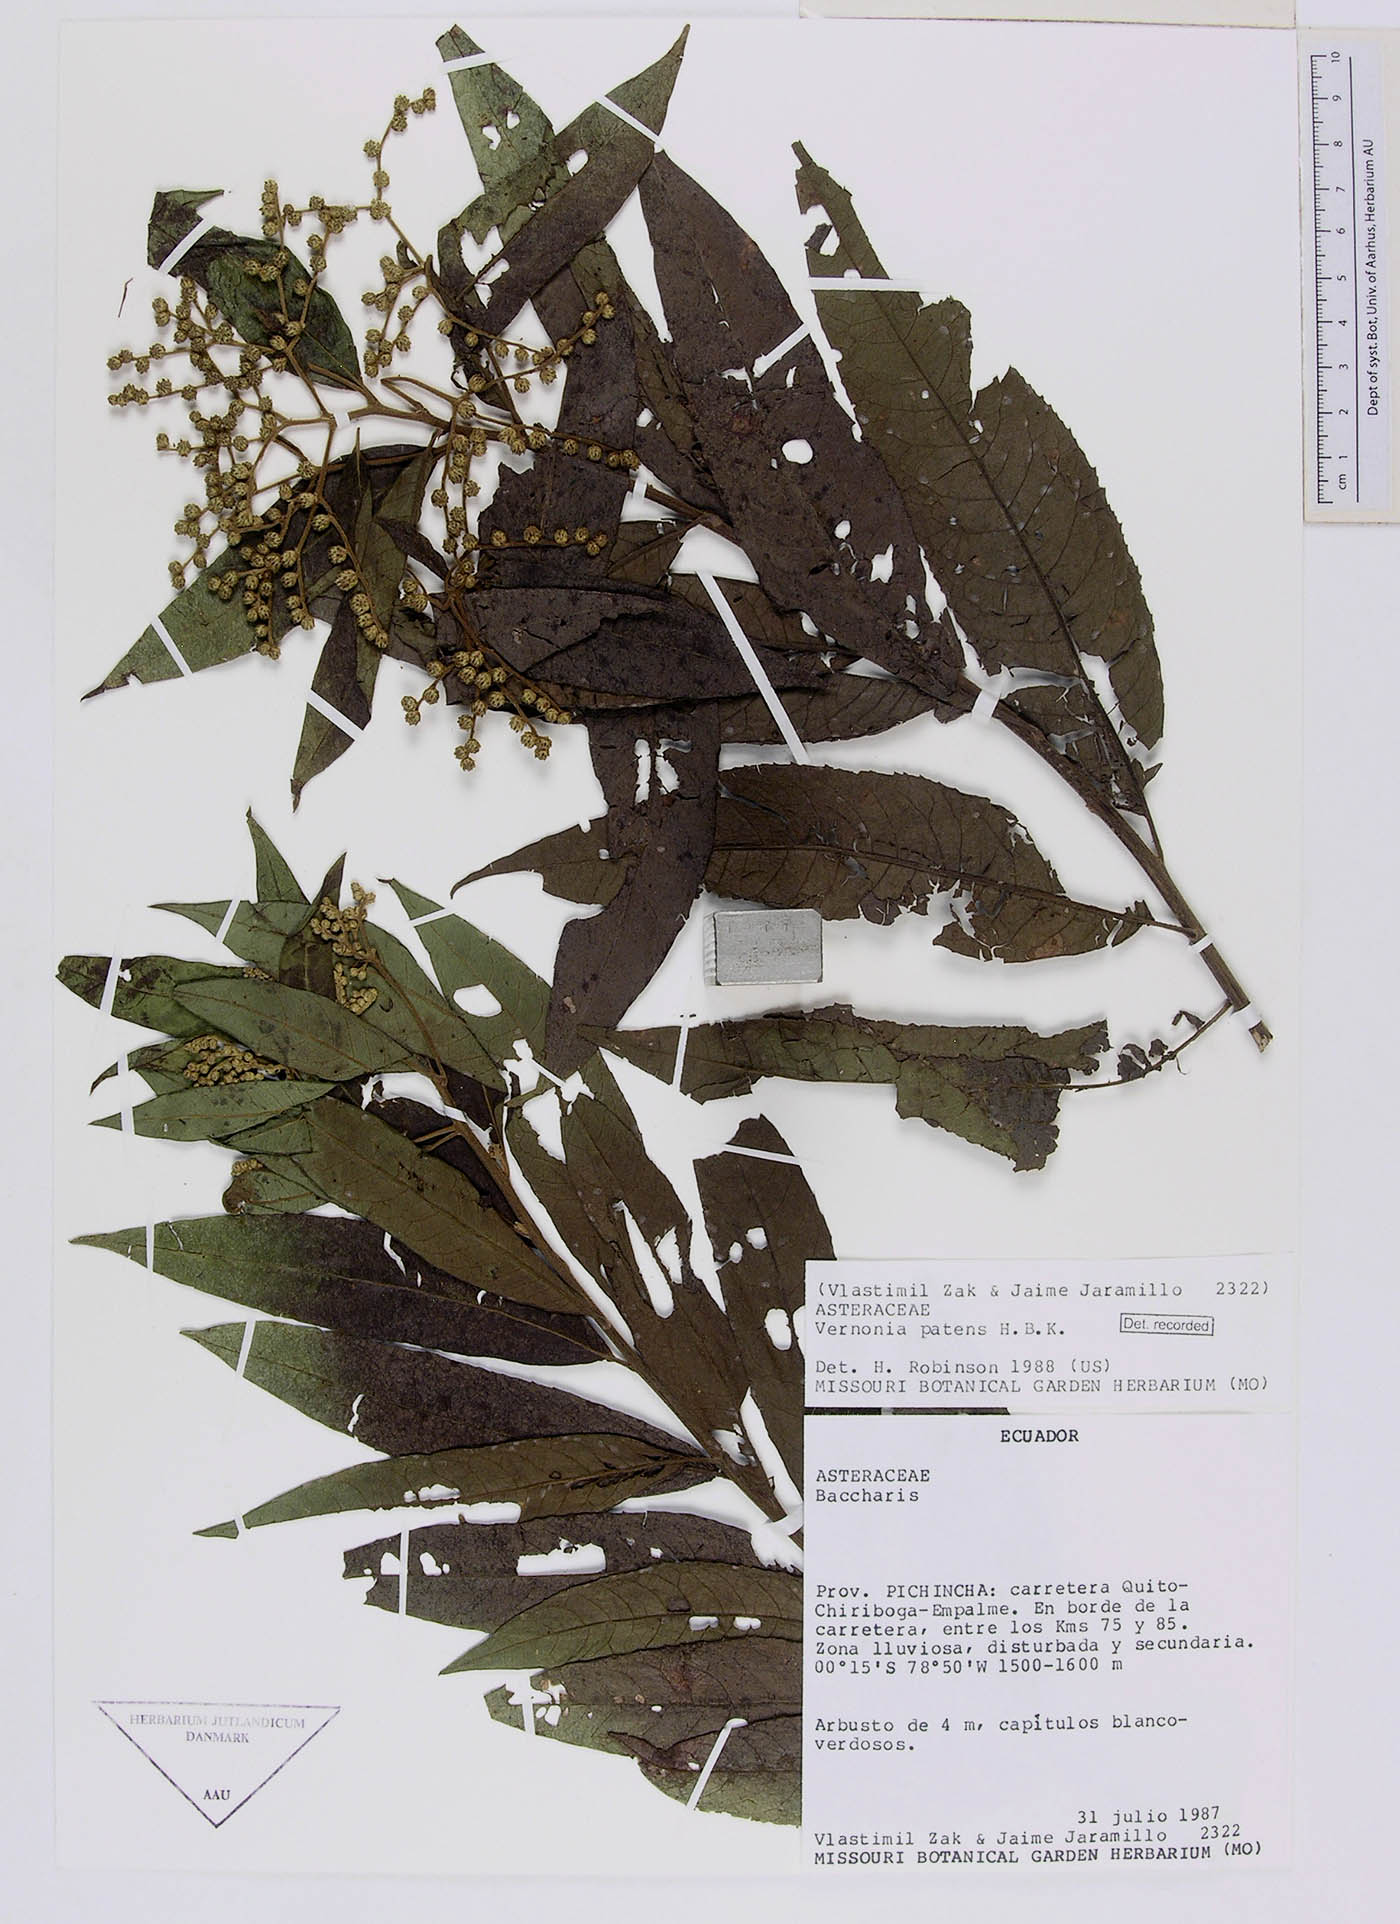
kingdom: Plantae
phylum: Tracheophyta
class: Magnoliopsida
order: Asterales
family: Asteraceae
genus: Vernonanthura
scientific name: Vernonanthura patens
